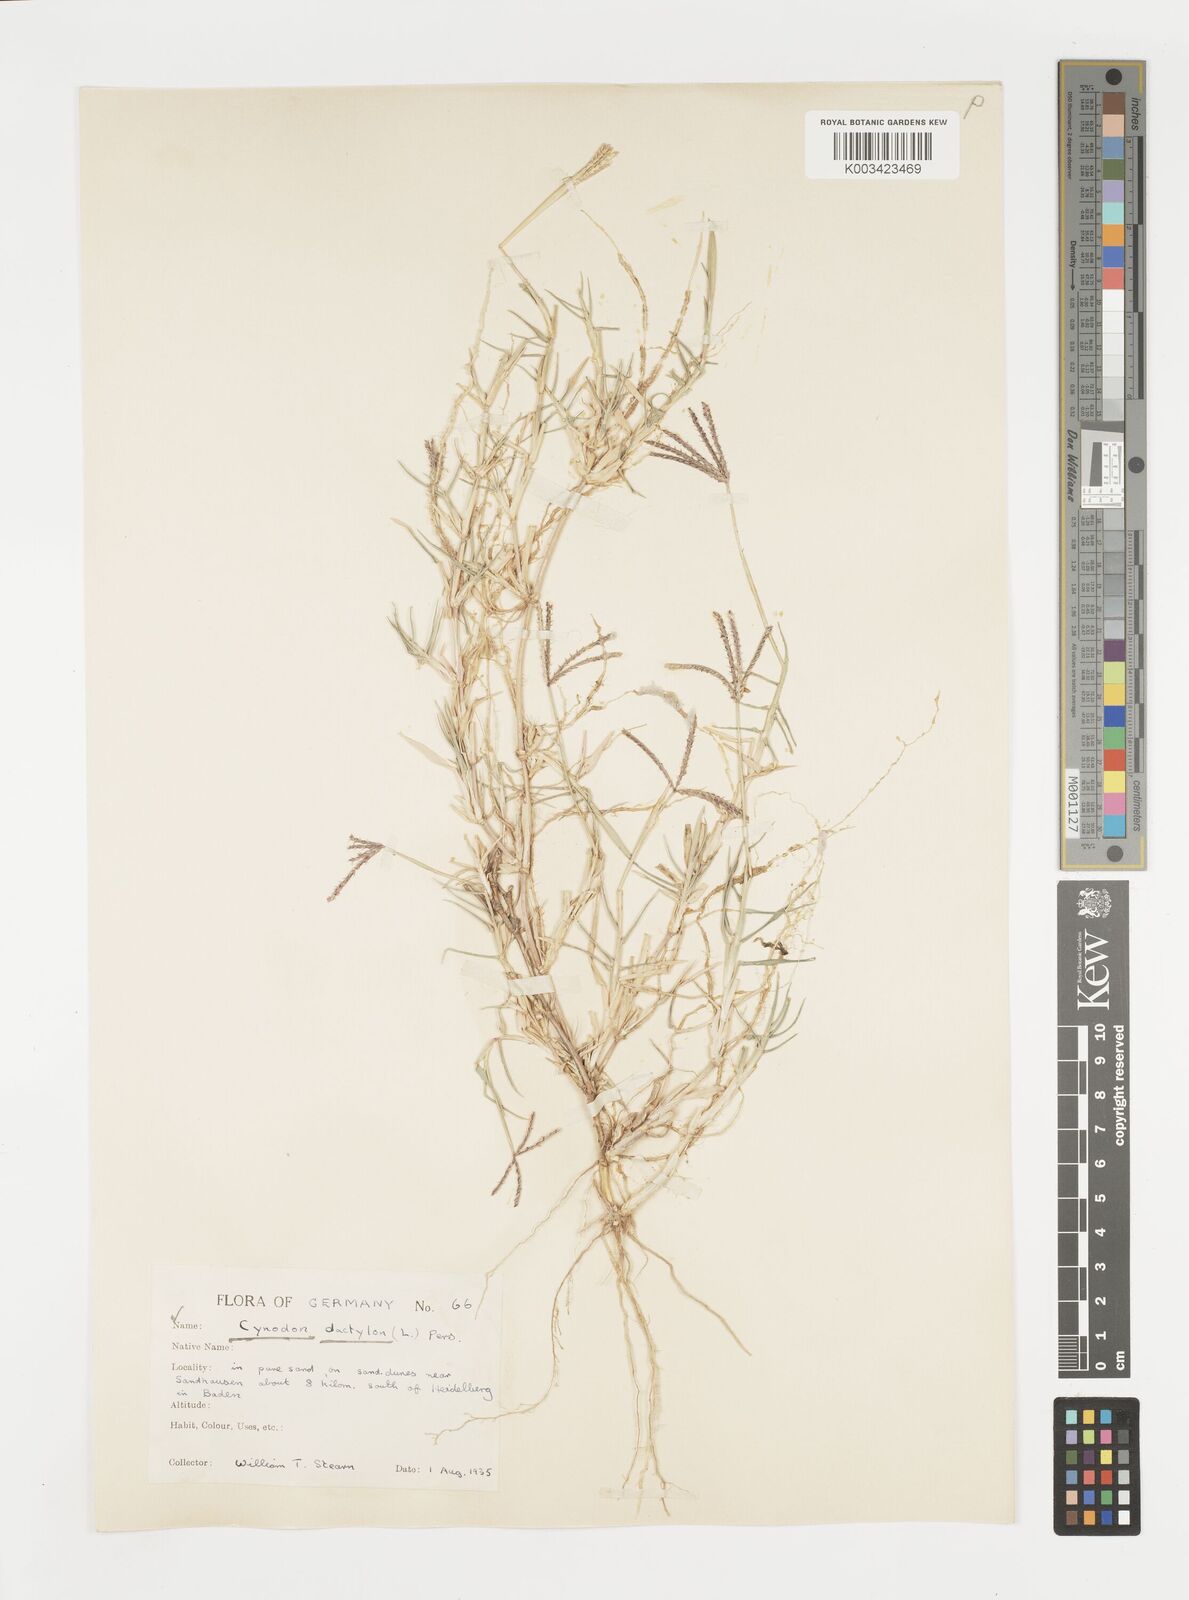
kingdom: Plantae
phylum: Tracheophyta
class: Liliopsida
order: Poales
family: Poaceae
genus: Cynodon
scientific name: Cynodon dactylon
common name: Bermuda grass
